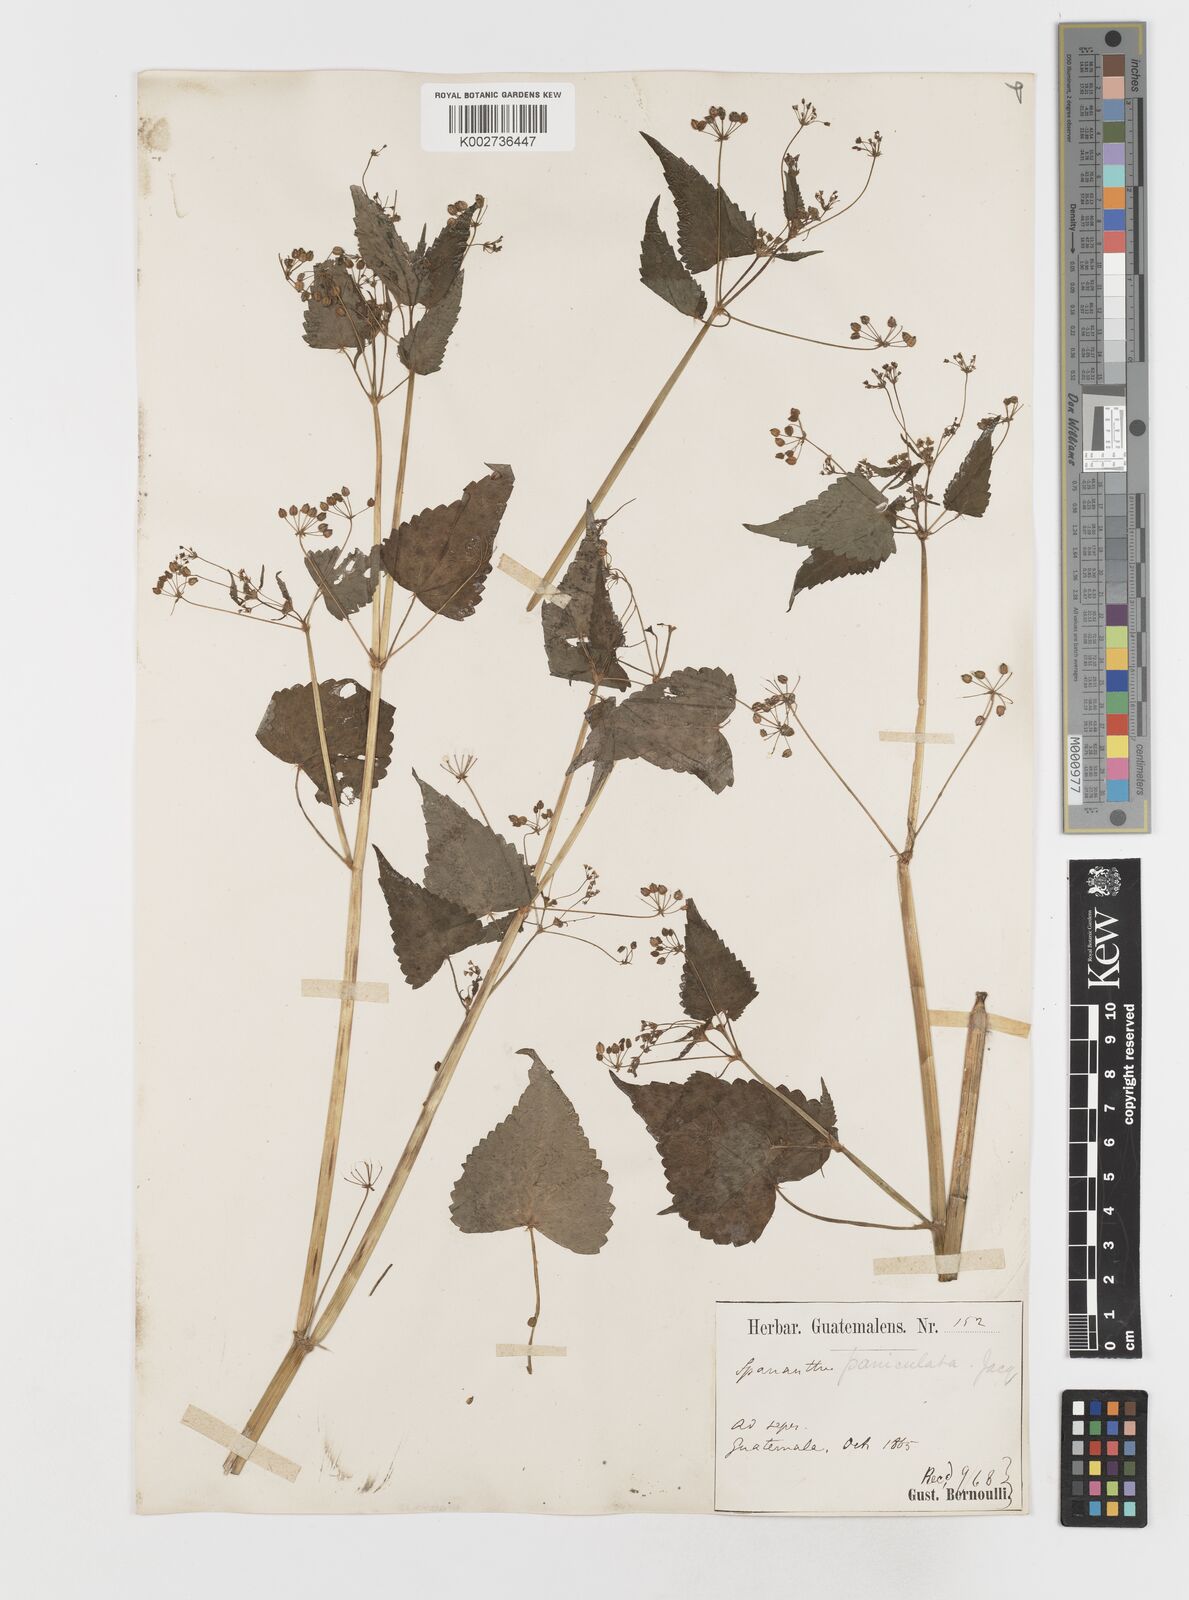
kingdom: Plantae
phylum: Tracheophyta
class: Magnoliopsida
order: Apiales
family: Apiaceae
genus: Spananthe
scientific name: Spananthe paniculata
